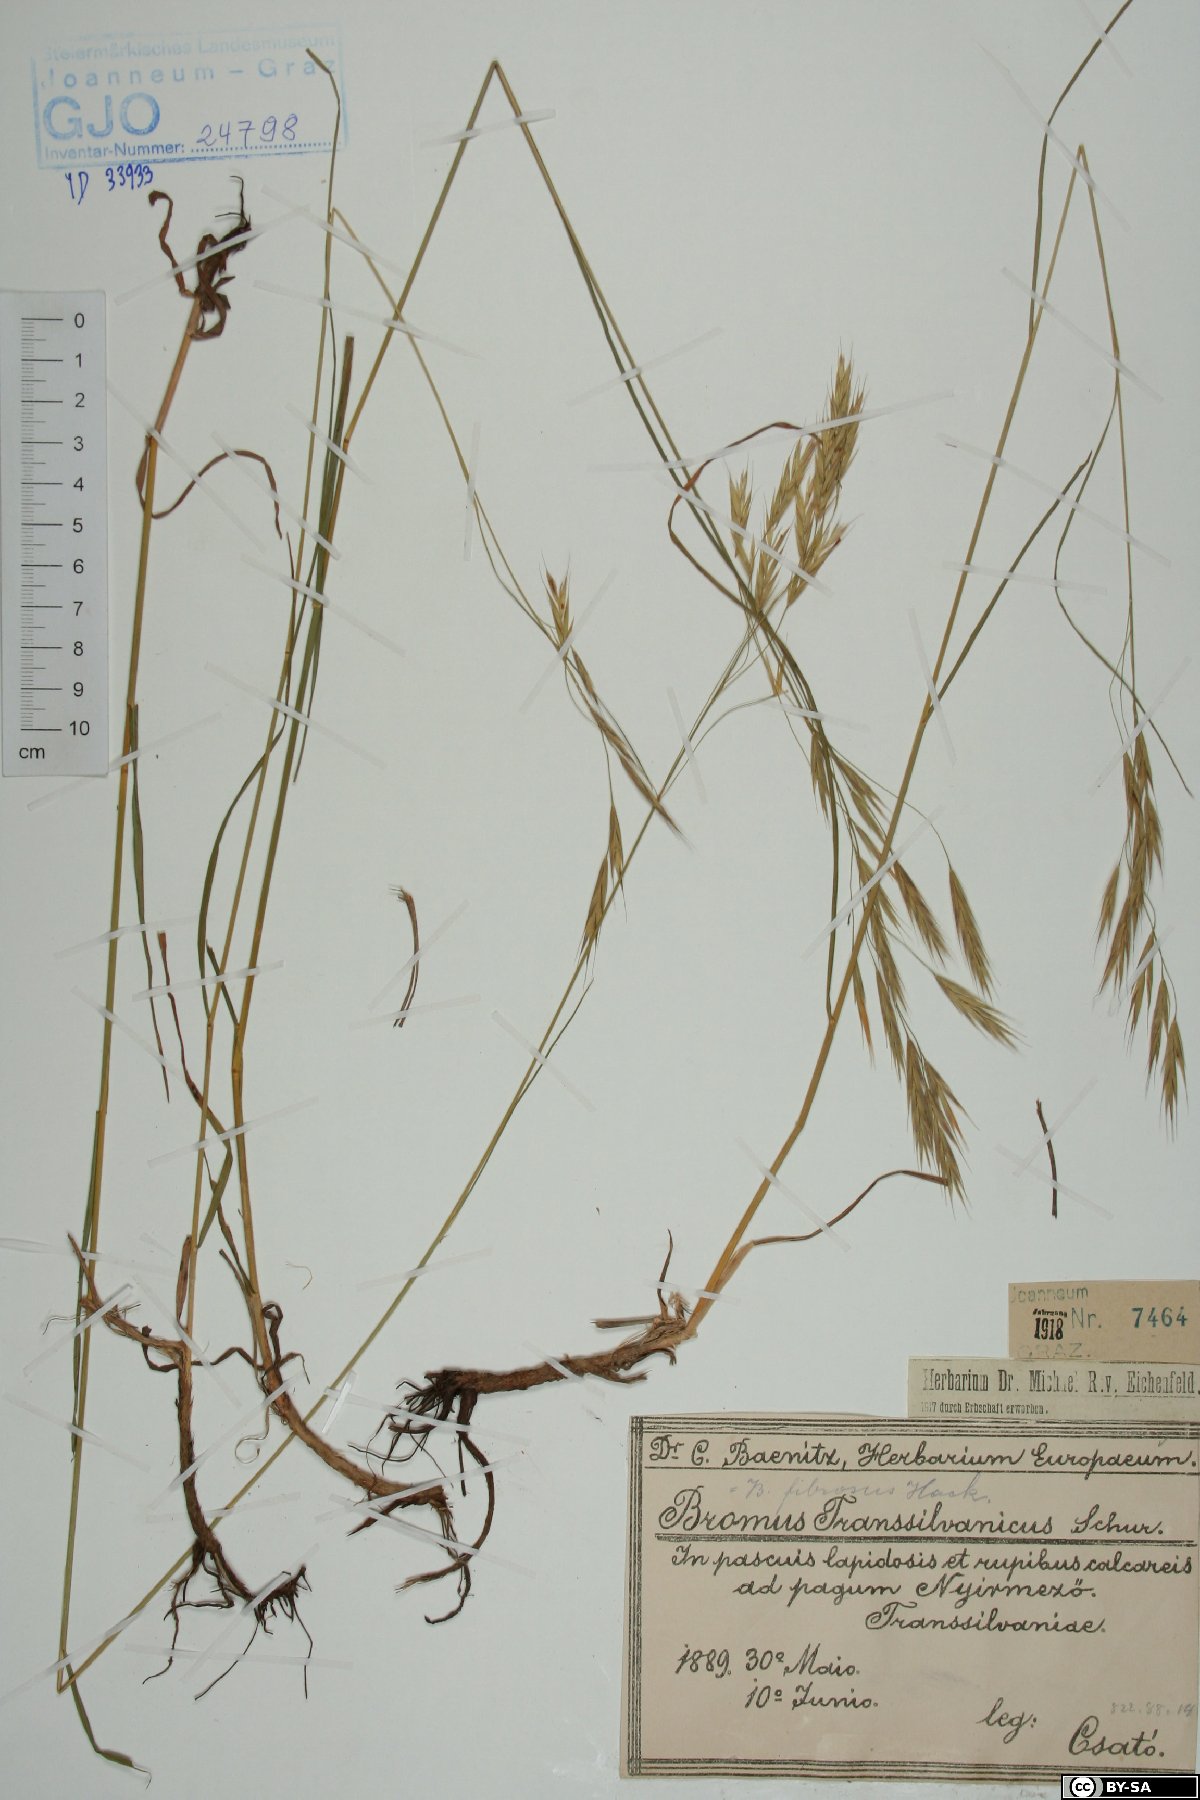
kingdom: Plantae
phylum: Tracheophyta
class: Liliopsida
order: Poales
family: Poaceae
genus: Bromus
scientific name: Bromus riparius
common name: Meadow brome
